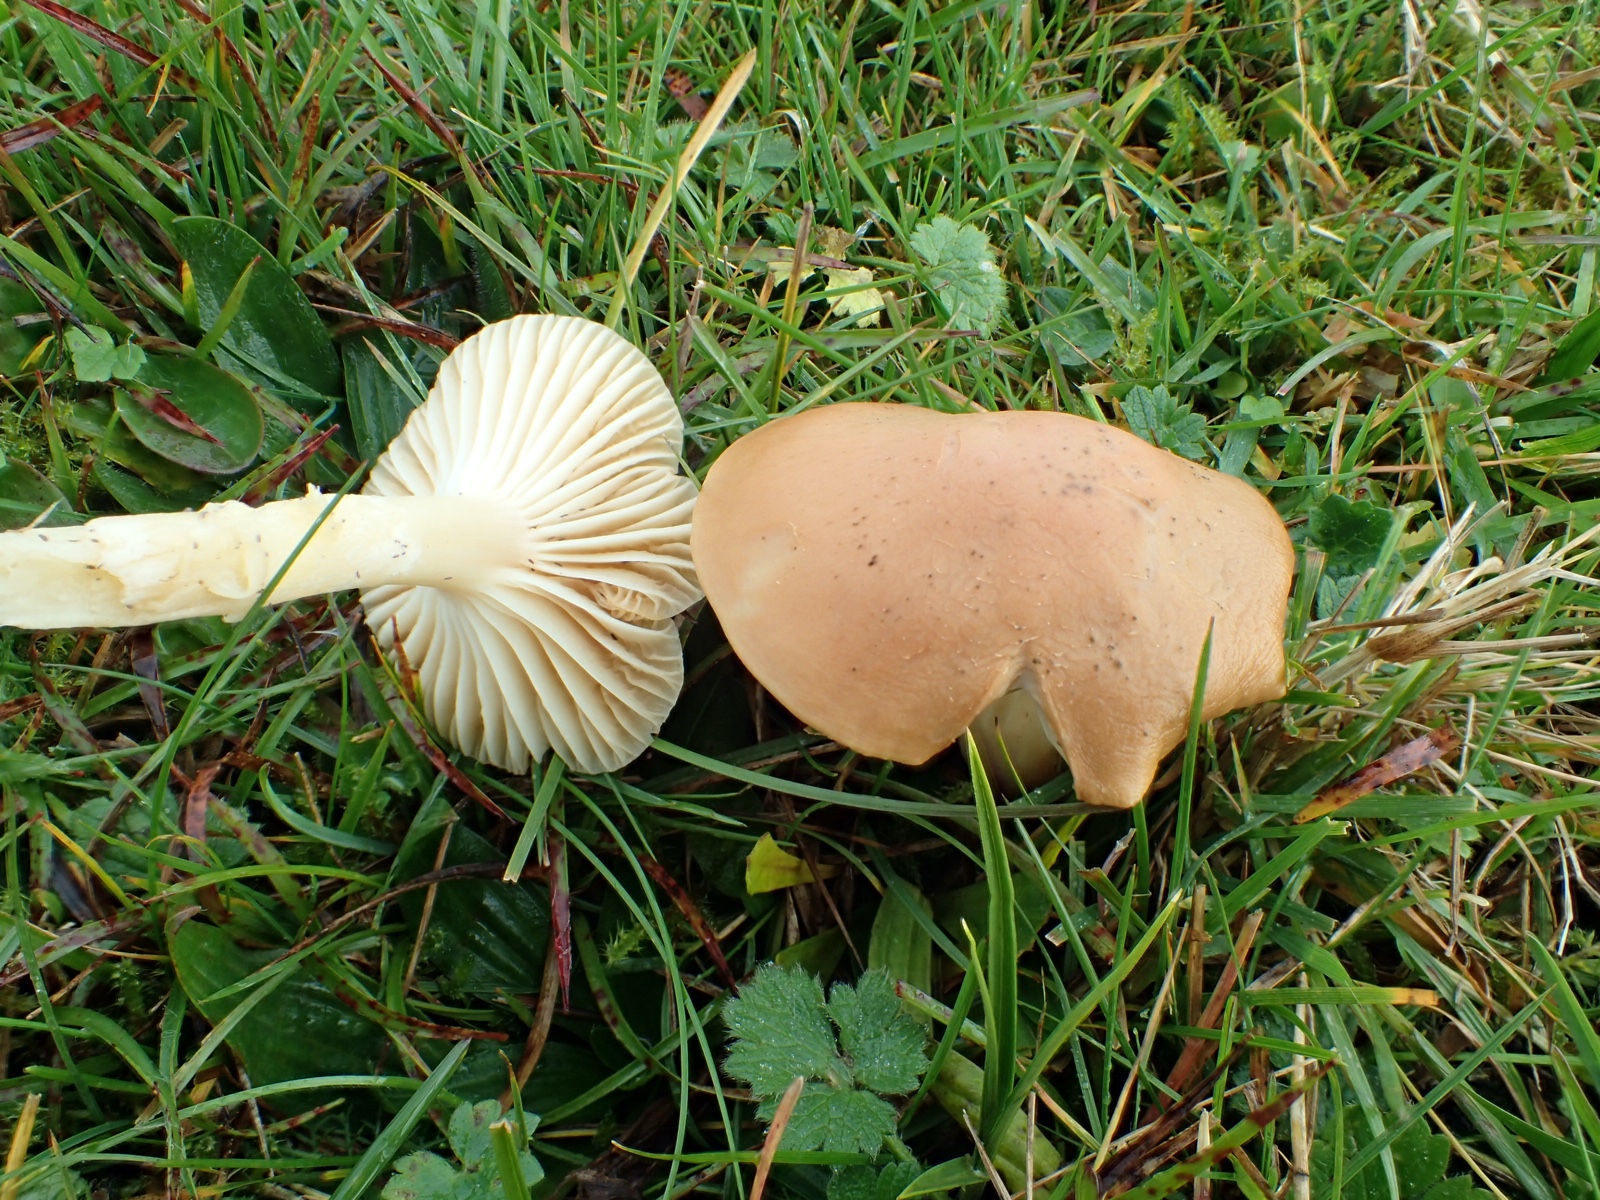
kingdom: Fungi
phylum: Basidiomycota
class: Agaricomycetes
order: Agaricales
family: Hygrophoraceae
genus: Cuphophyllus
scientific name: Cuphophyllus pratensis
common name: eng-vokshat
